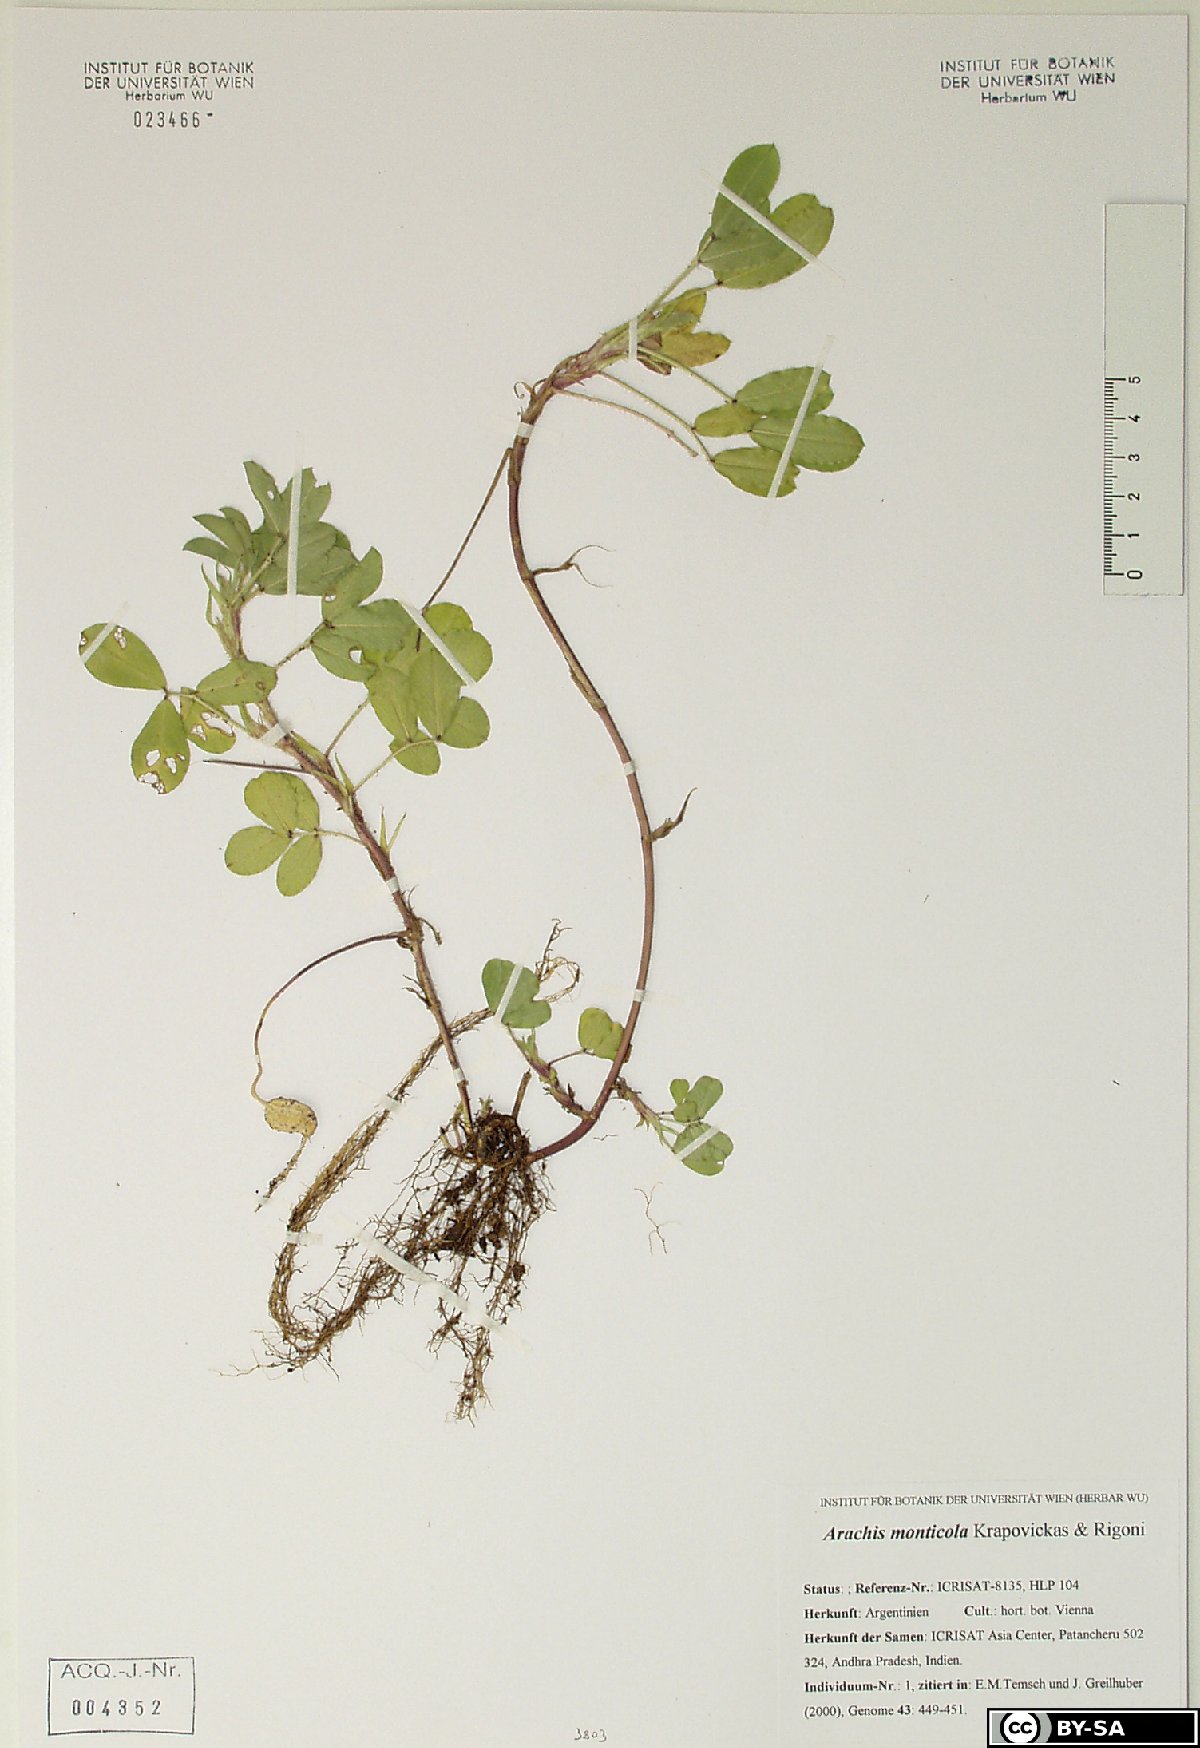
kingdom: Plantae
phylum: Tracheophyta
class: Magnoliopsida
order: Fabales
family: Fabaceae
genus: Arachis
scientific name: Arachis monticola
